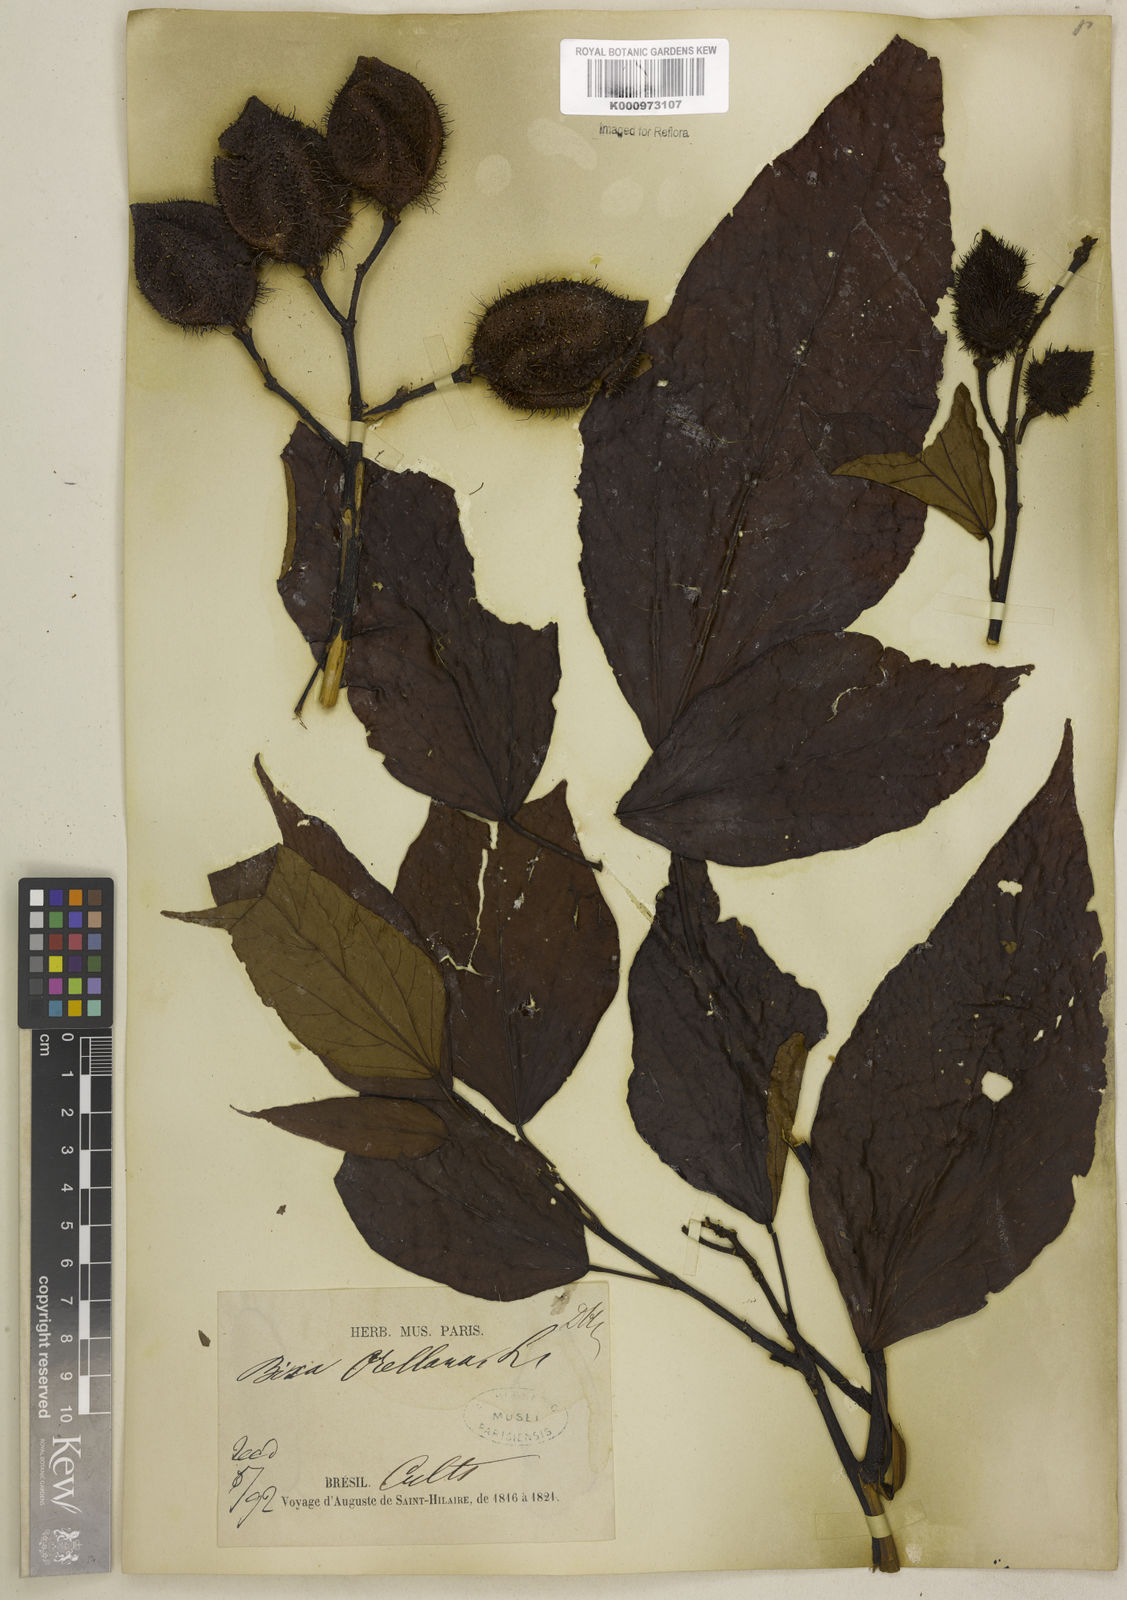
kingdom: Plantae
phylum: Tracheophyta
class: Magnoliopsida
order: Malvales
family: Bixaceae
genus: Bixa
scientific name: Bixa urucurana
